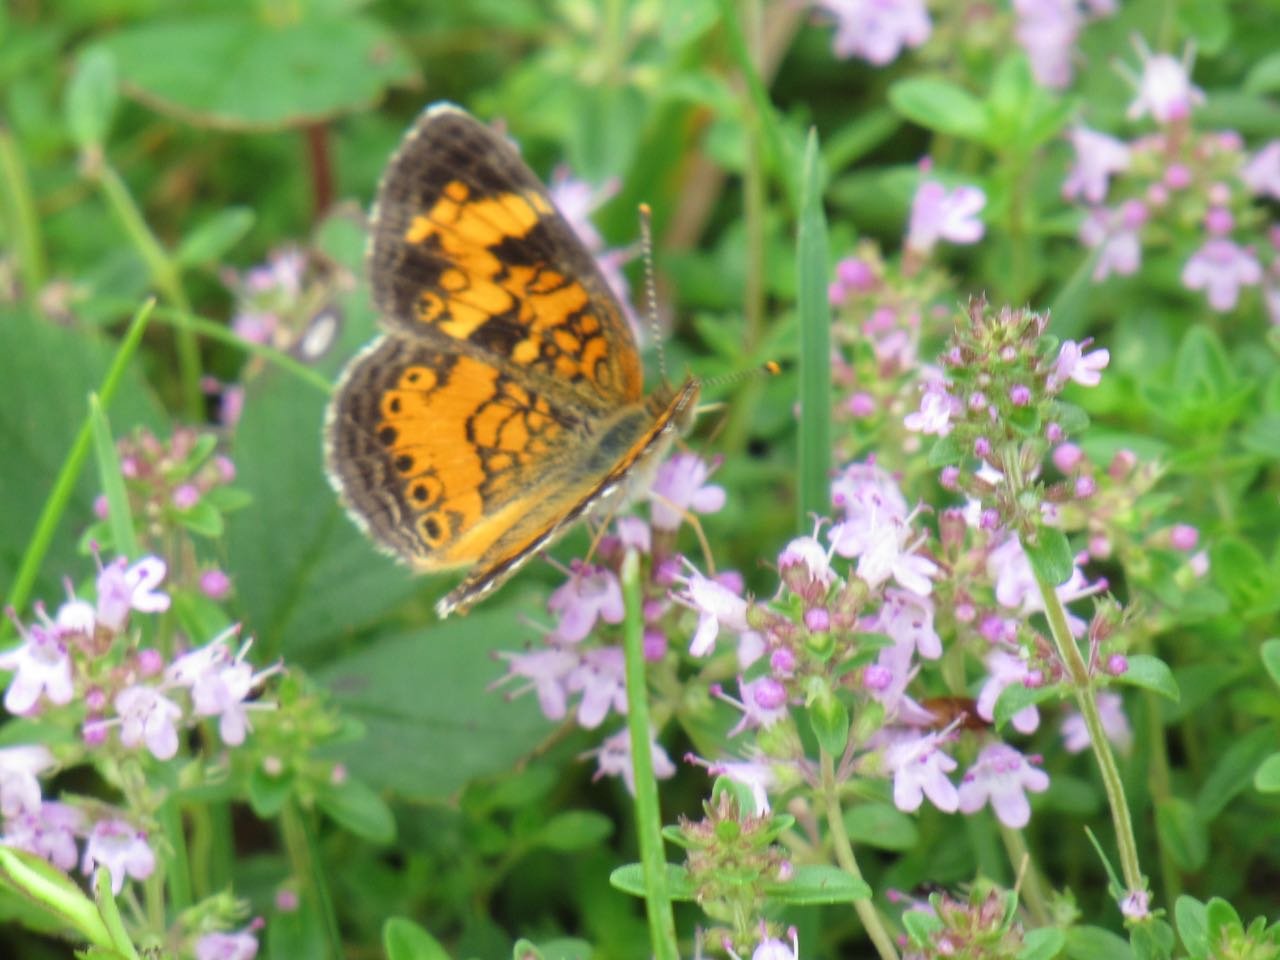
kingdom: Animalia
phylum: Arthropoda
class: Insecta
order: Lepidoptera
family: Nymphalidae
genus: Phyciodes
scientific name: Phyciodes tharos
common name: Pearl Crescent
